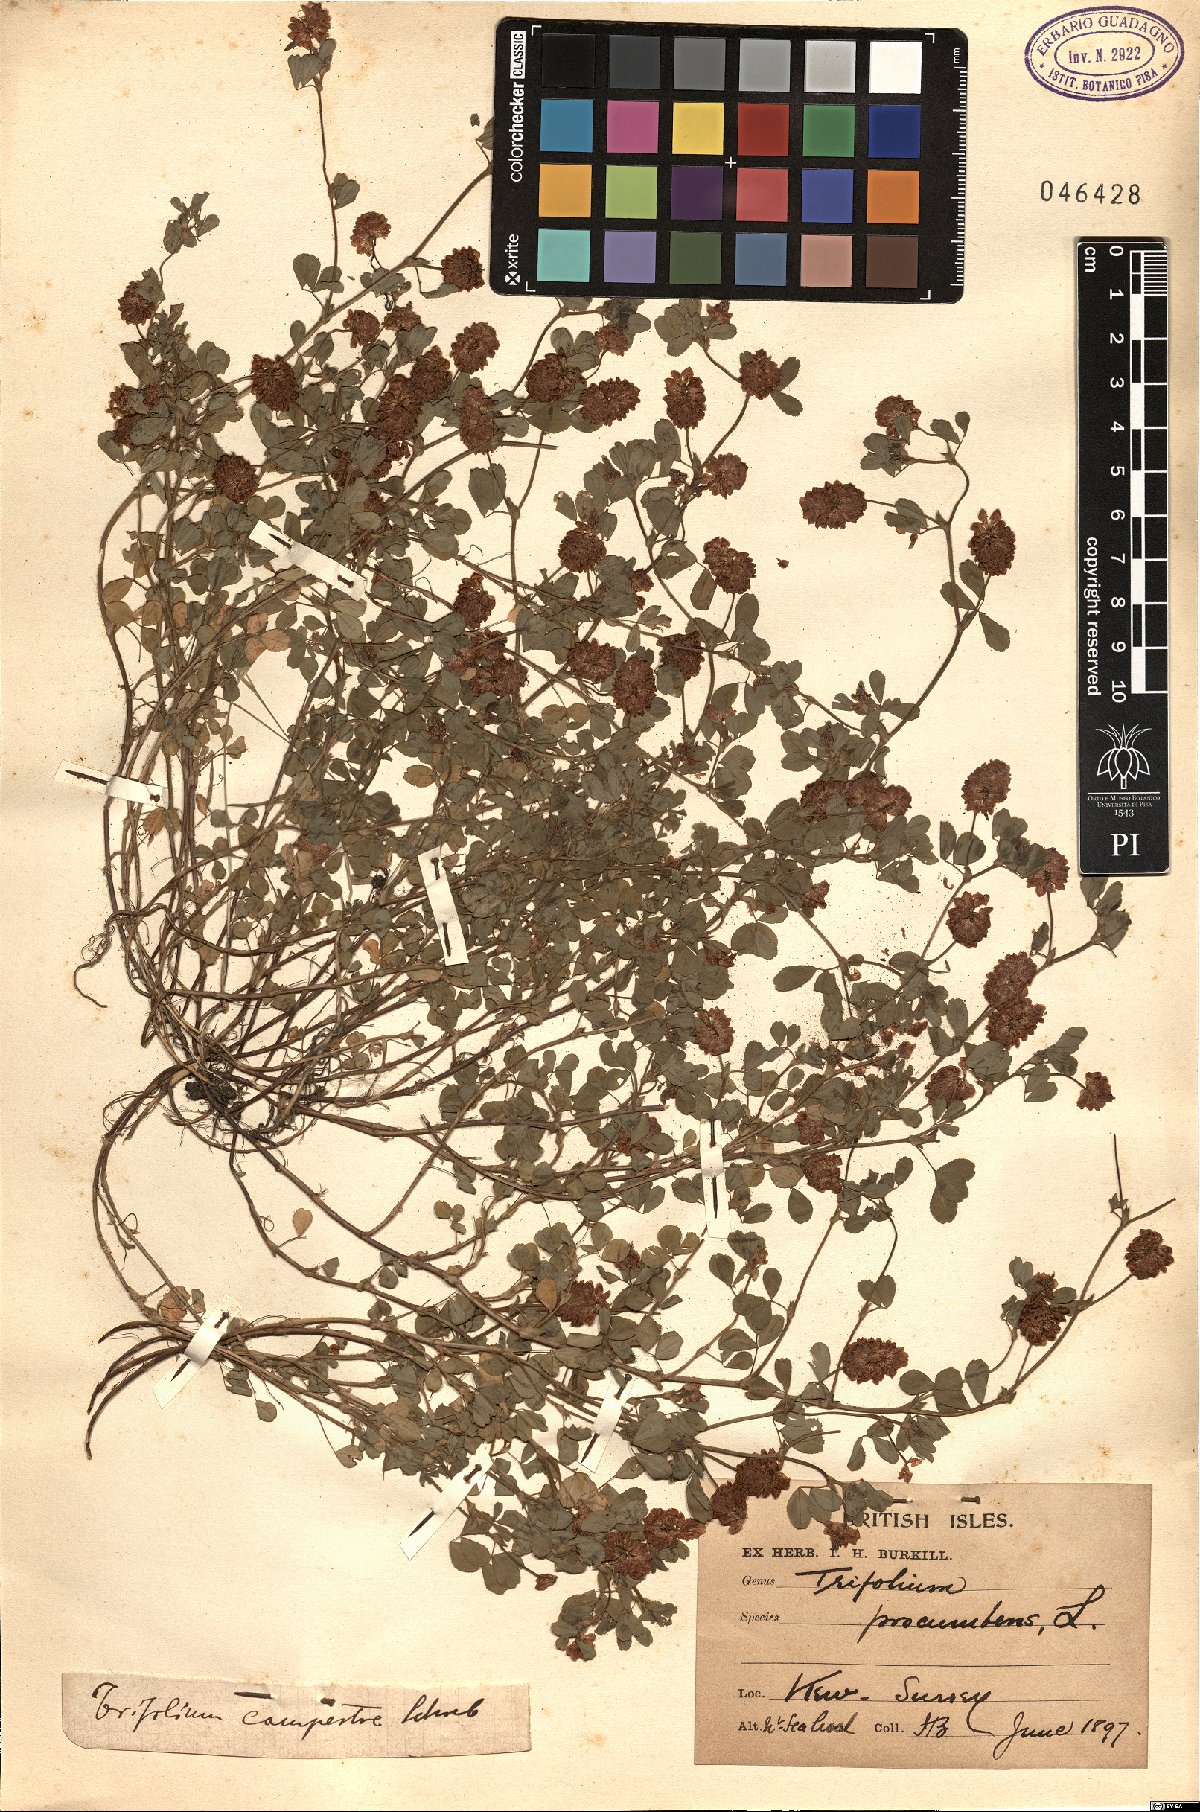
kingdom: Plantae
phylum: Tracheophyta
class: Magnoliopsida
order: Fabales
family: Fabaceae
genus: Trifolium
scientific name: Trifolium campestre
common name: Field clover
